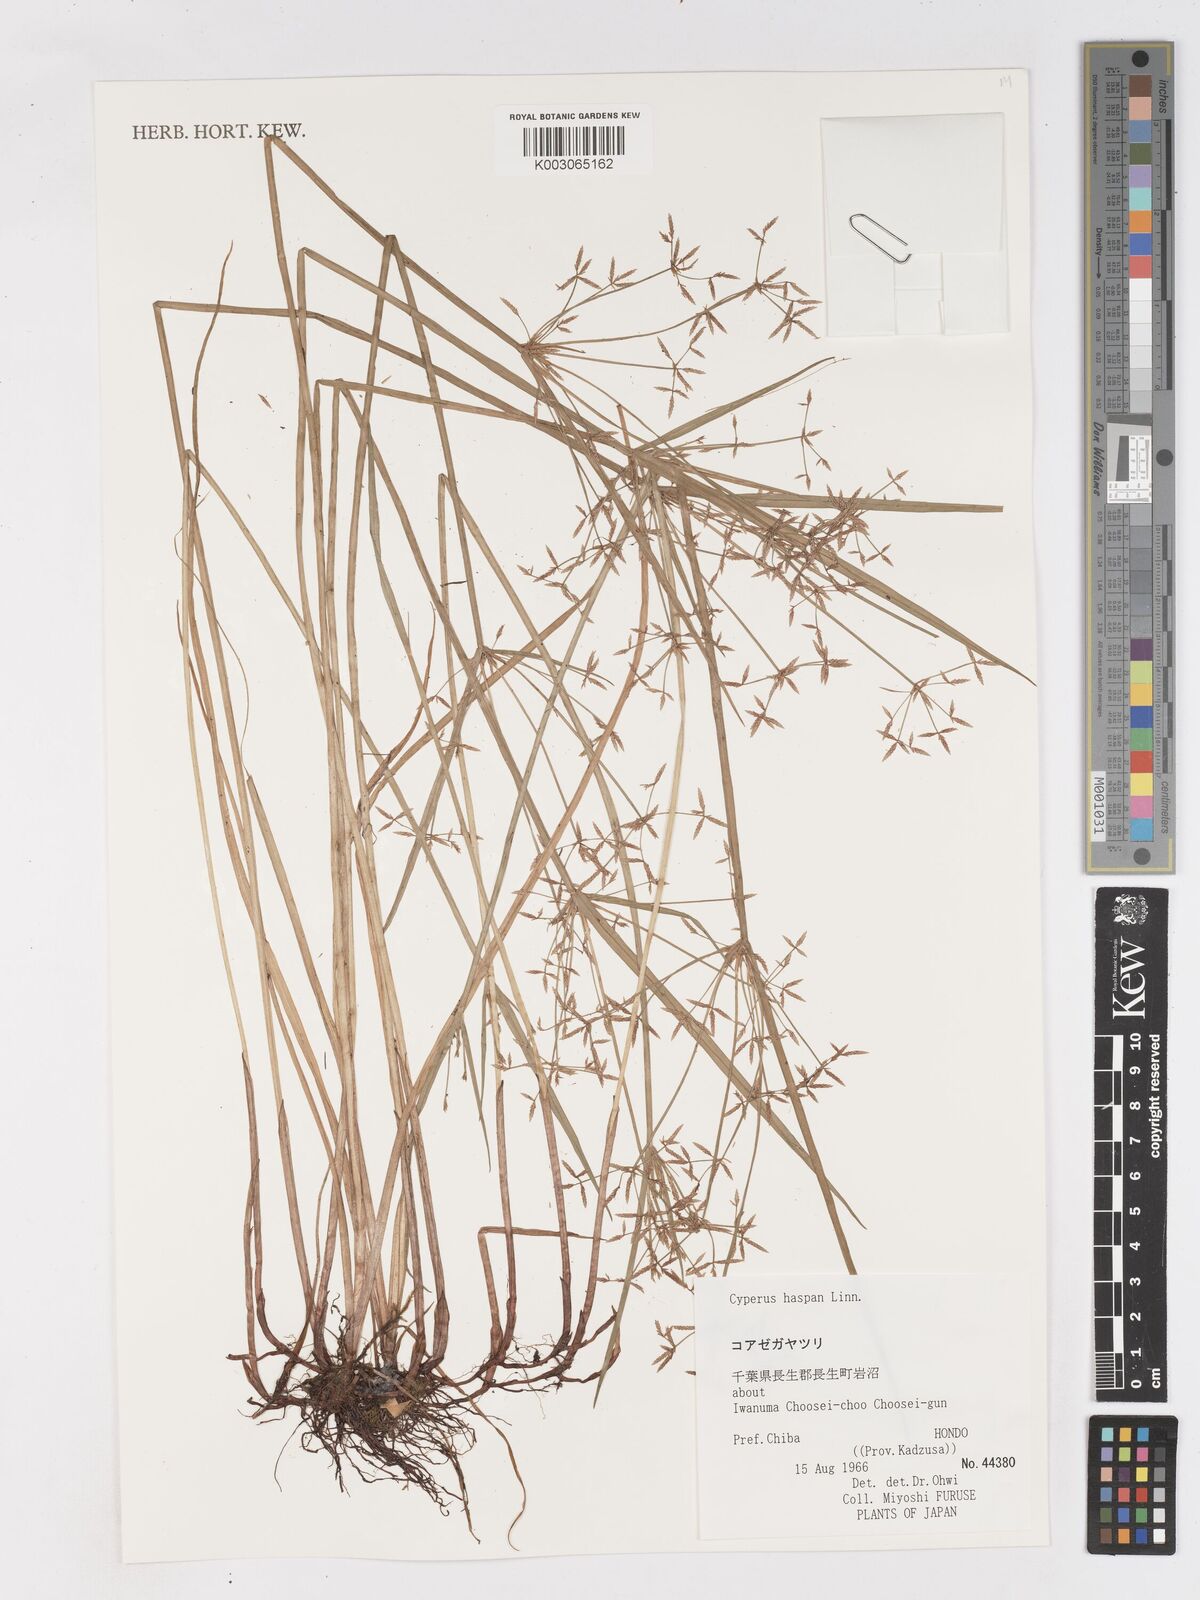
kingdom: Plantae
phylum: Tracheophyta
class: Liliopsida
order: Poales
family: Cyperaceae
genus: Cyperus
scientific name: Cyperus haspan
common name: Haspan flatsedge
